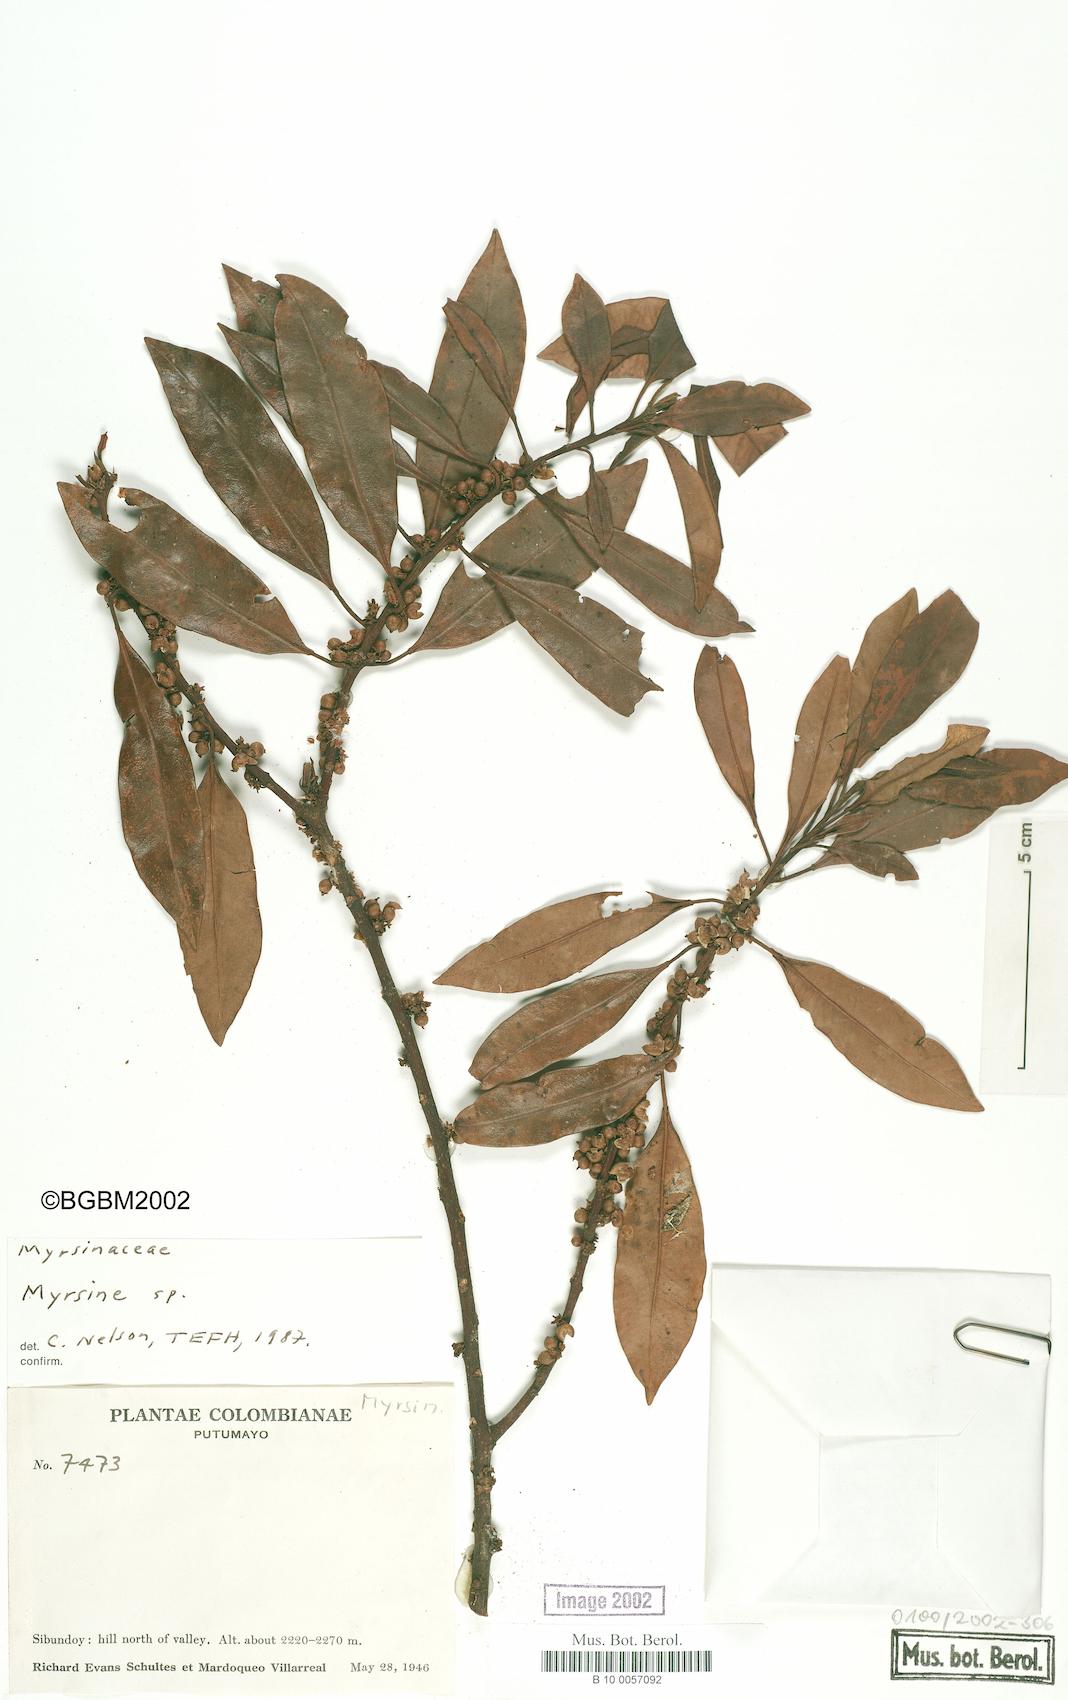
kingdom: Plantae
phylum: Tracheophyta
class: Magnoliopsida
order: Ericales
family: Primulaceae
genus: Myrsine
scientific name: Myrsine
